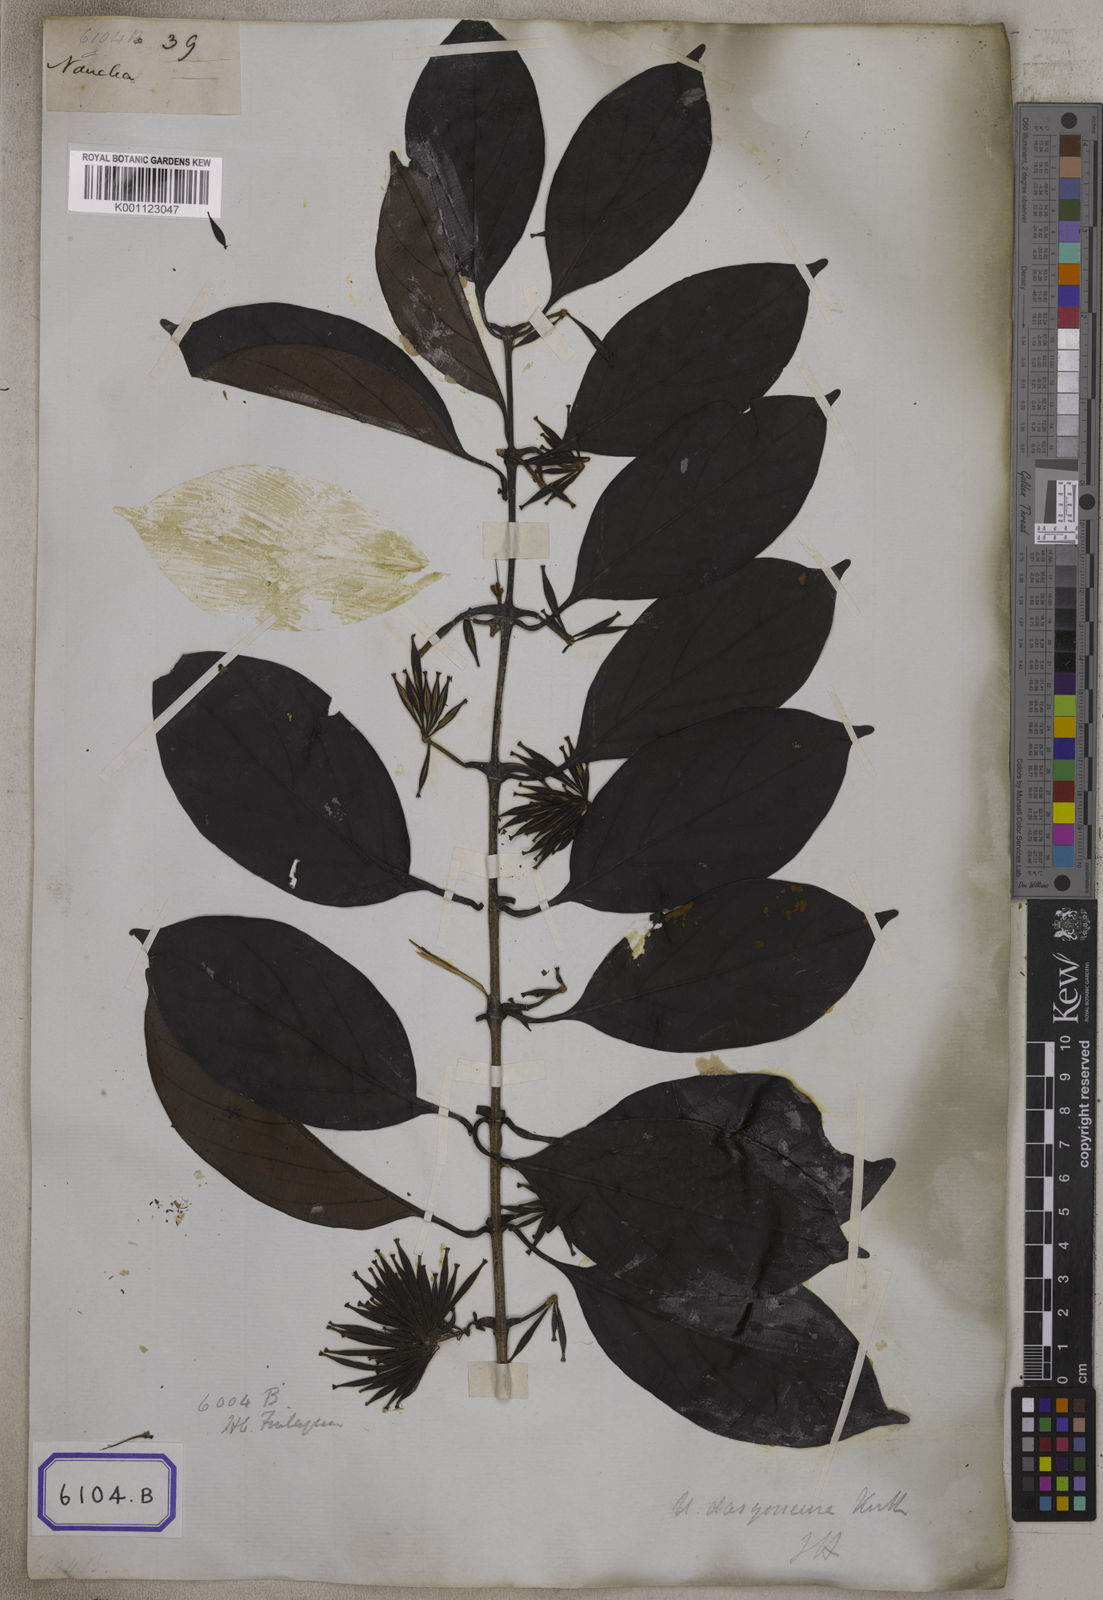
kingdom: Plantae
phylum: Tracheophyta
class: Magnoliopsida
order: Gentianales
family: Rubiaceae
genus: Uncaria
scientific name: Uncaria
